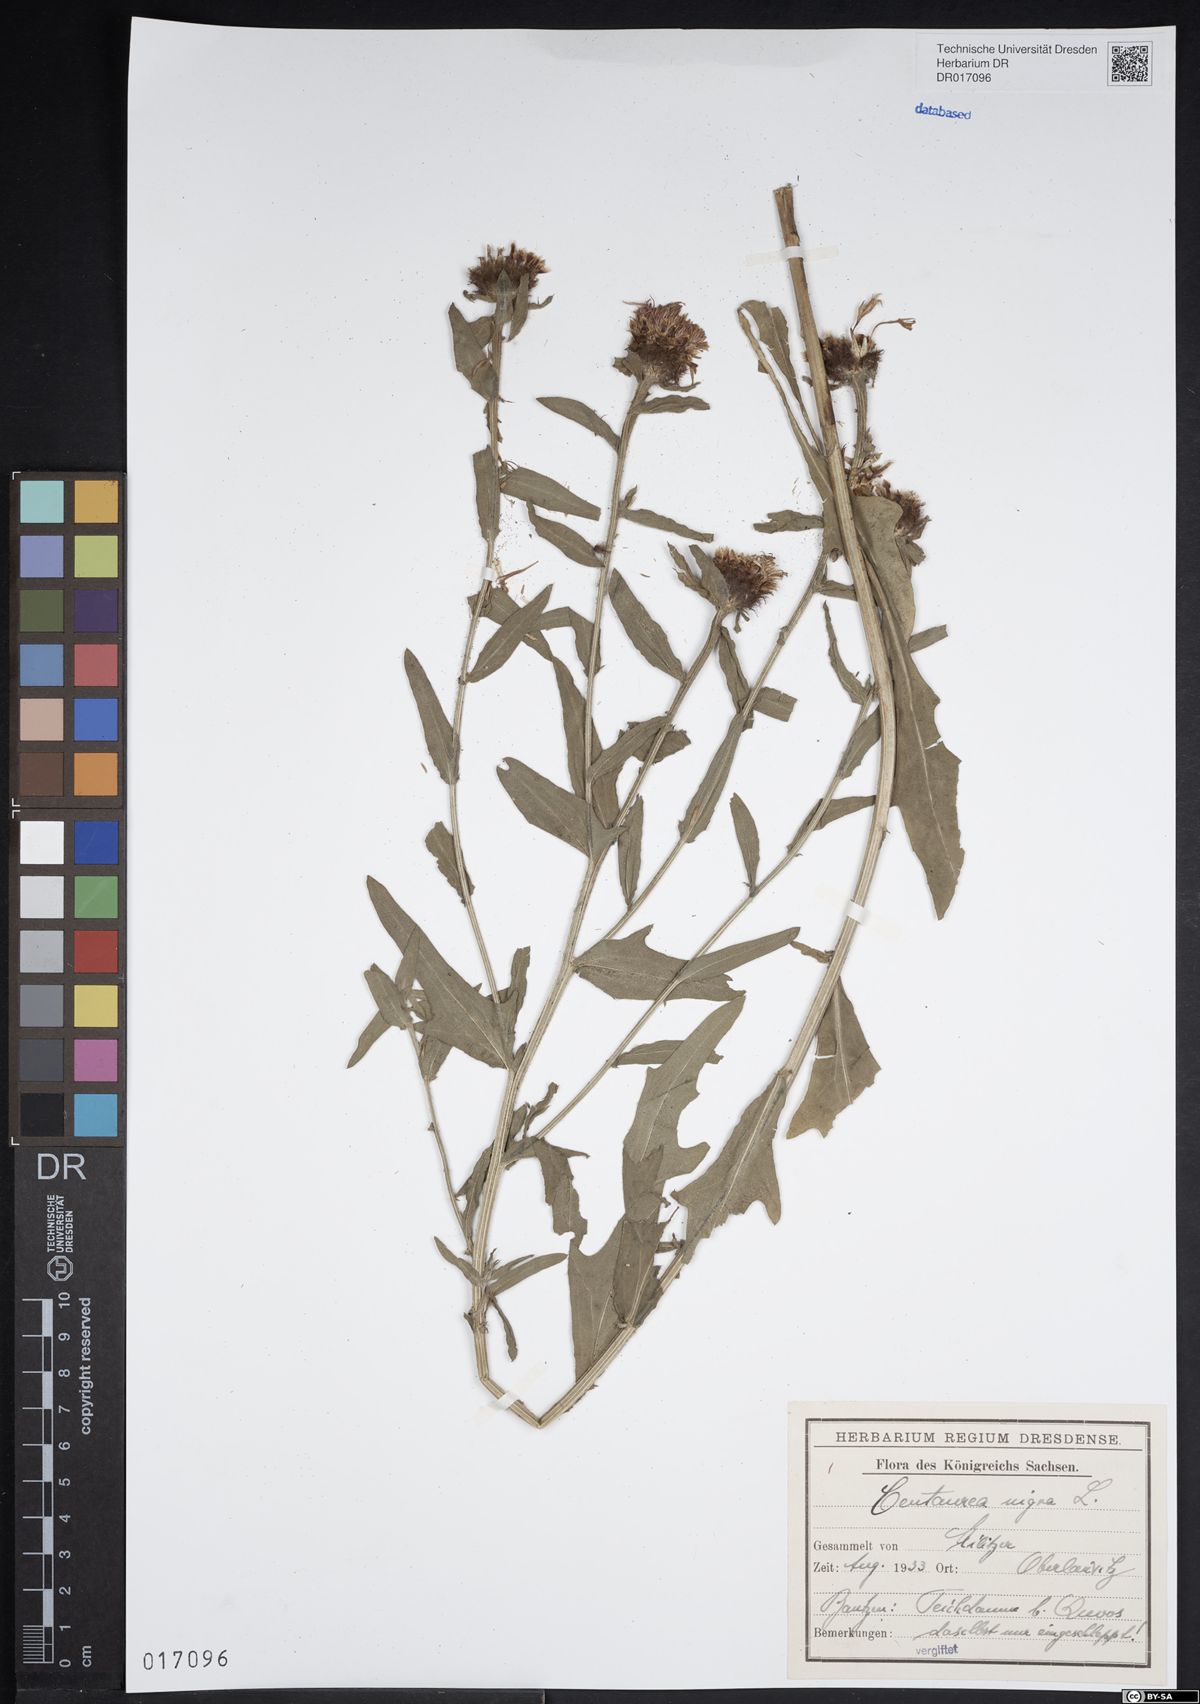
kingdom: Plantae
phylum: Tracheophyta
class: Magnoliopsida
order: Asterales
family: Asteraceae
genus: Centaurea
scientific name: Centaurea nigra
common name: Lesser knapweed
